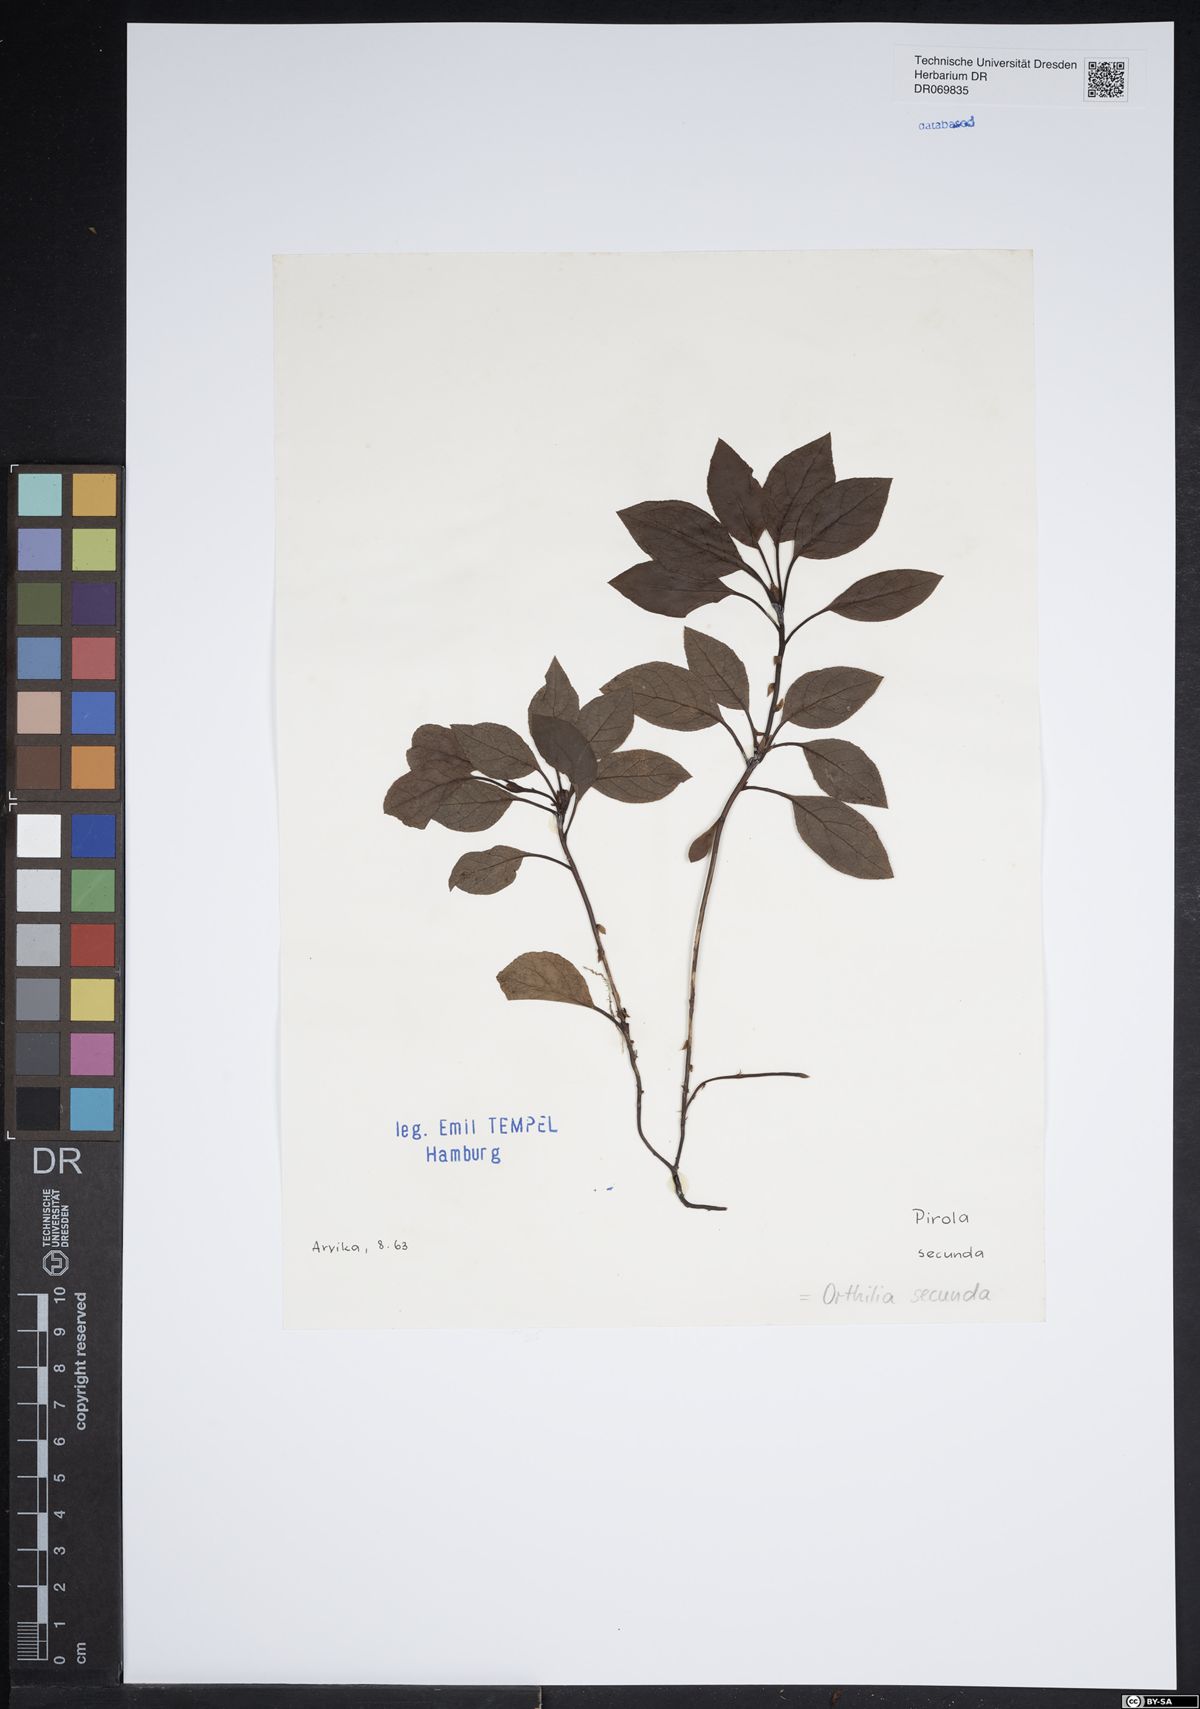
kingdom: Plantae
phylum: Tracheophyta
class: Magnoliopsida
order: Ericales
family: Ericaceae
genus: Orthilia
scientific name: Orthilia secunda
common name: One-sided orthilia
